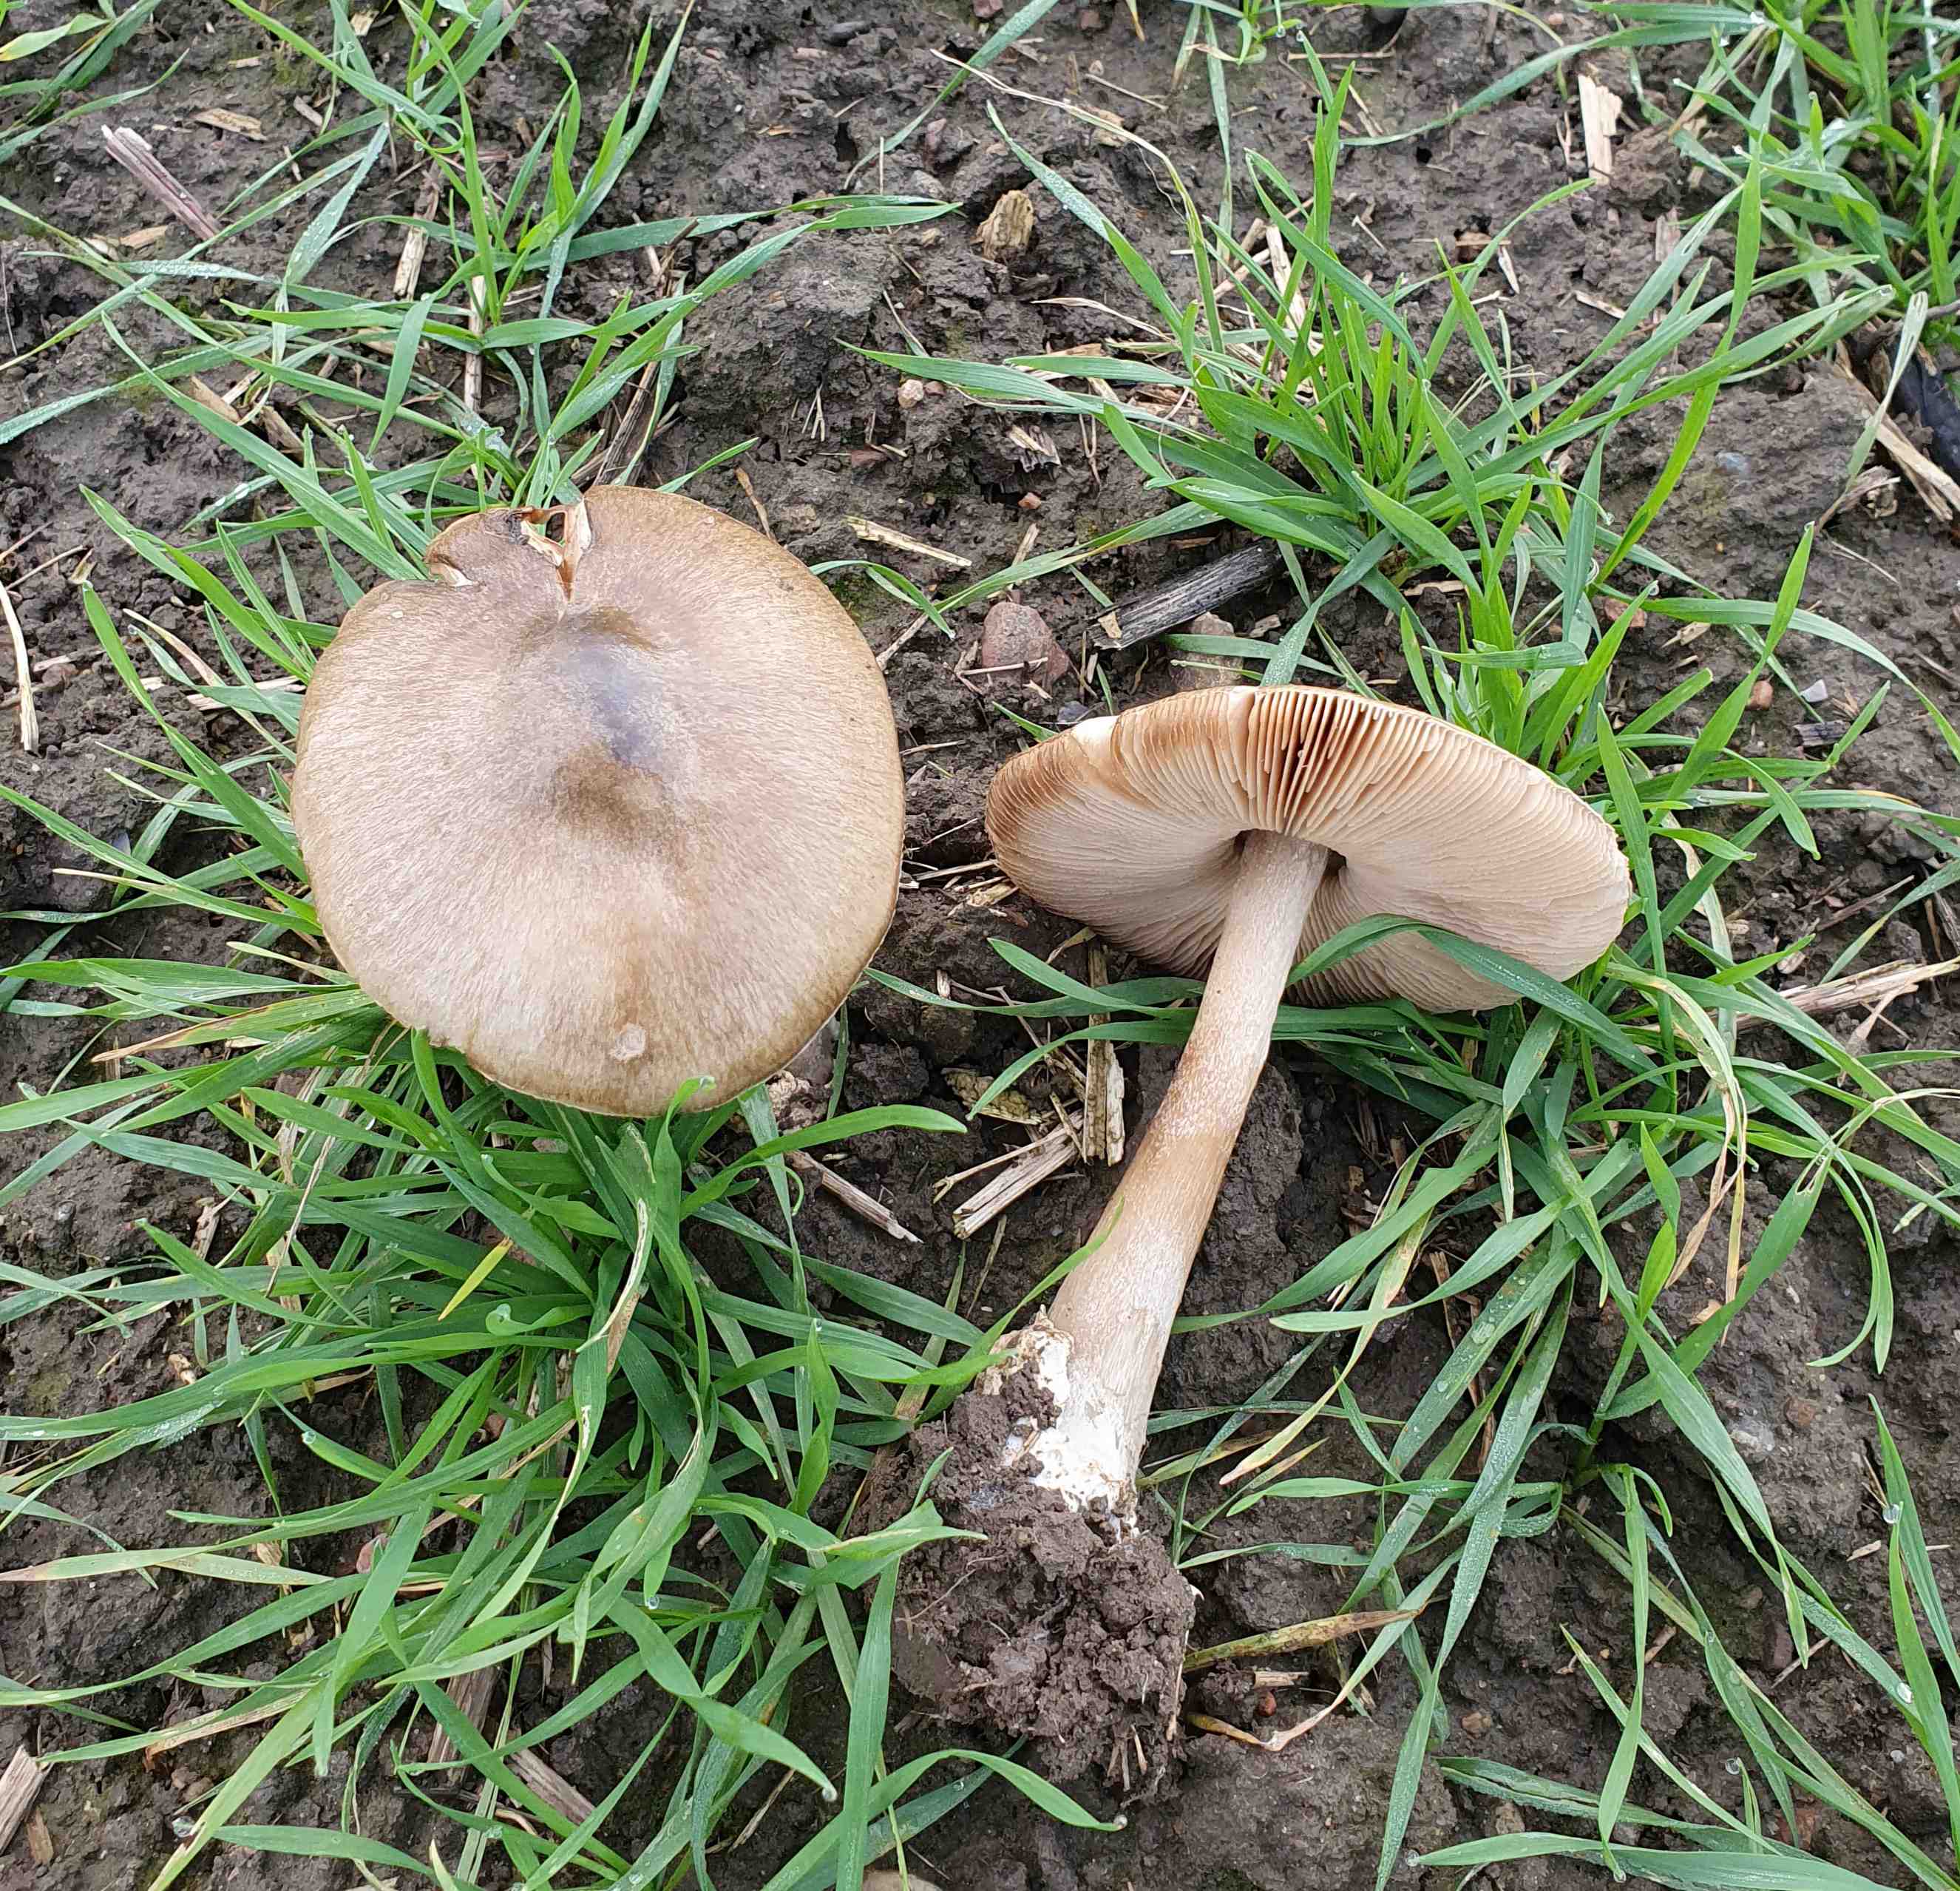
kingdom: Fungi
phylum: Basidiomycota
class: Agaricomycetes
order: Agaricales
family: Pluteaceae
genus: Volvopluteus
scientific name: Volvopluteus gloiocephalus
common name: høj posesvamp
